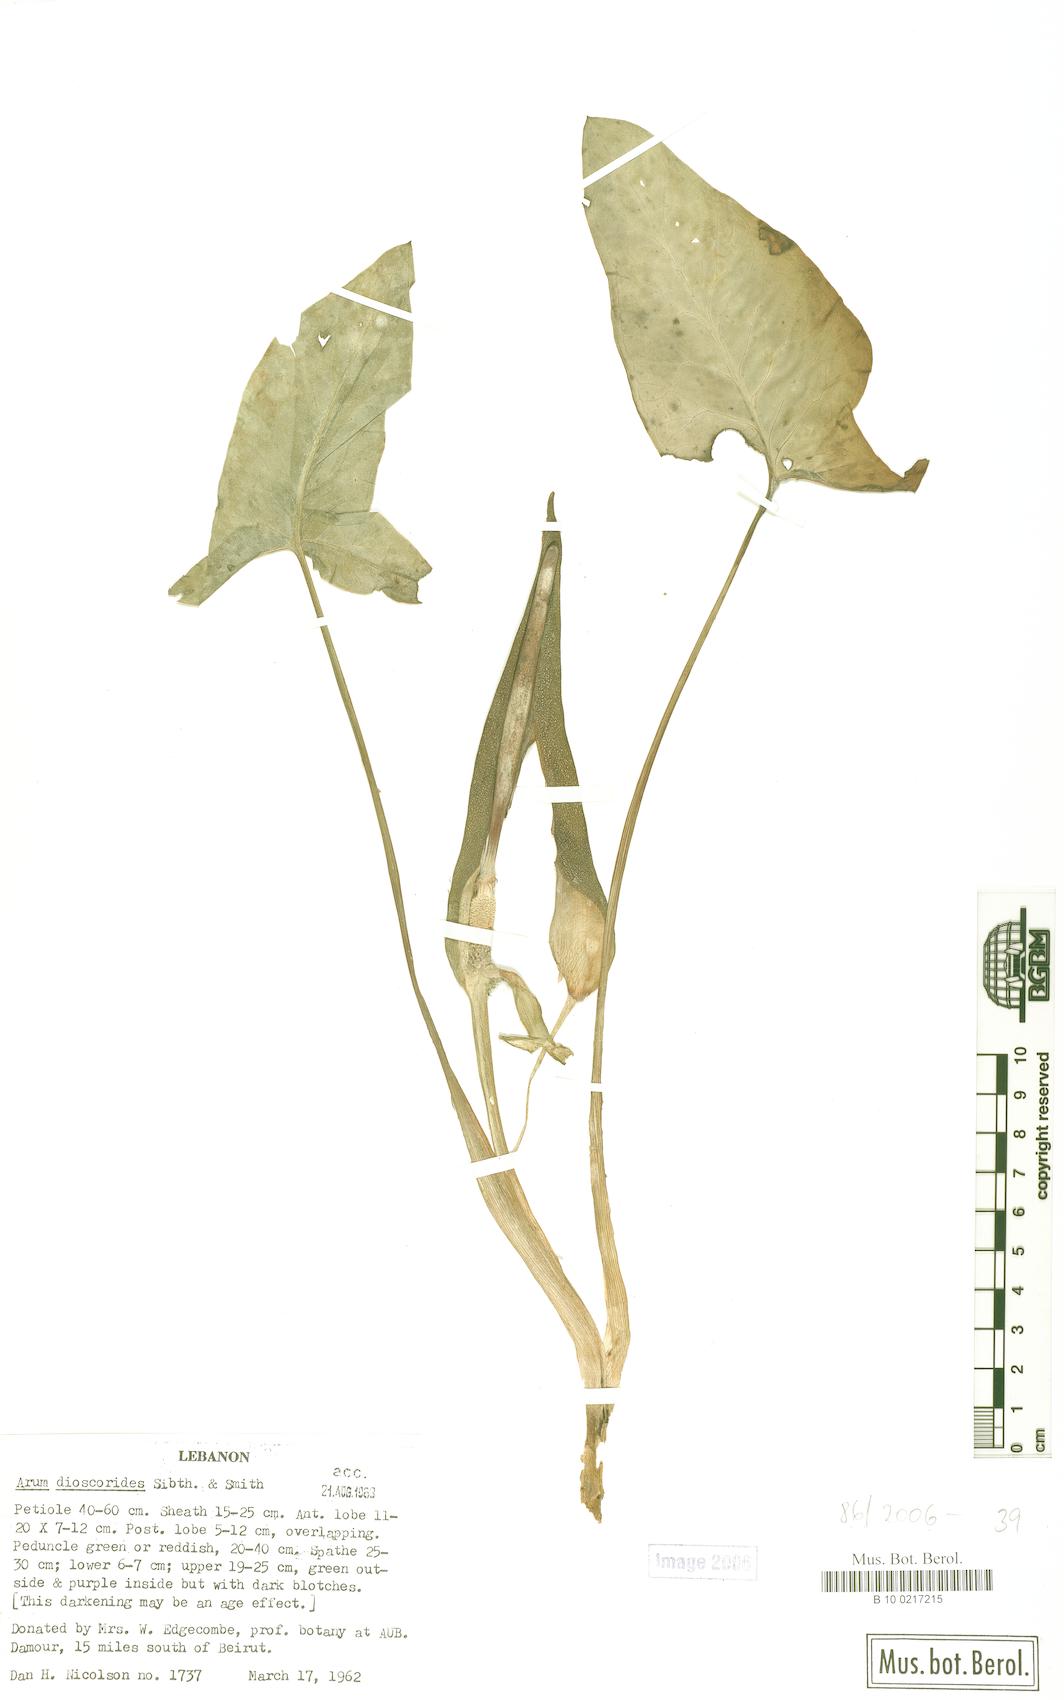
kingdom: Plantae
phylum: Tracheophyta
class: Liliopsida
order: Alismatales
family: Araceae
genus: Arum
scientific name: Arum dioscoridis
